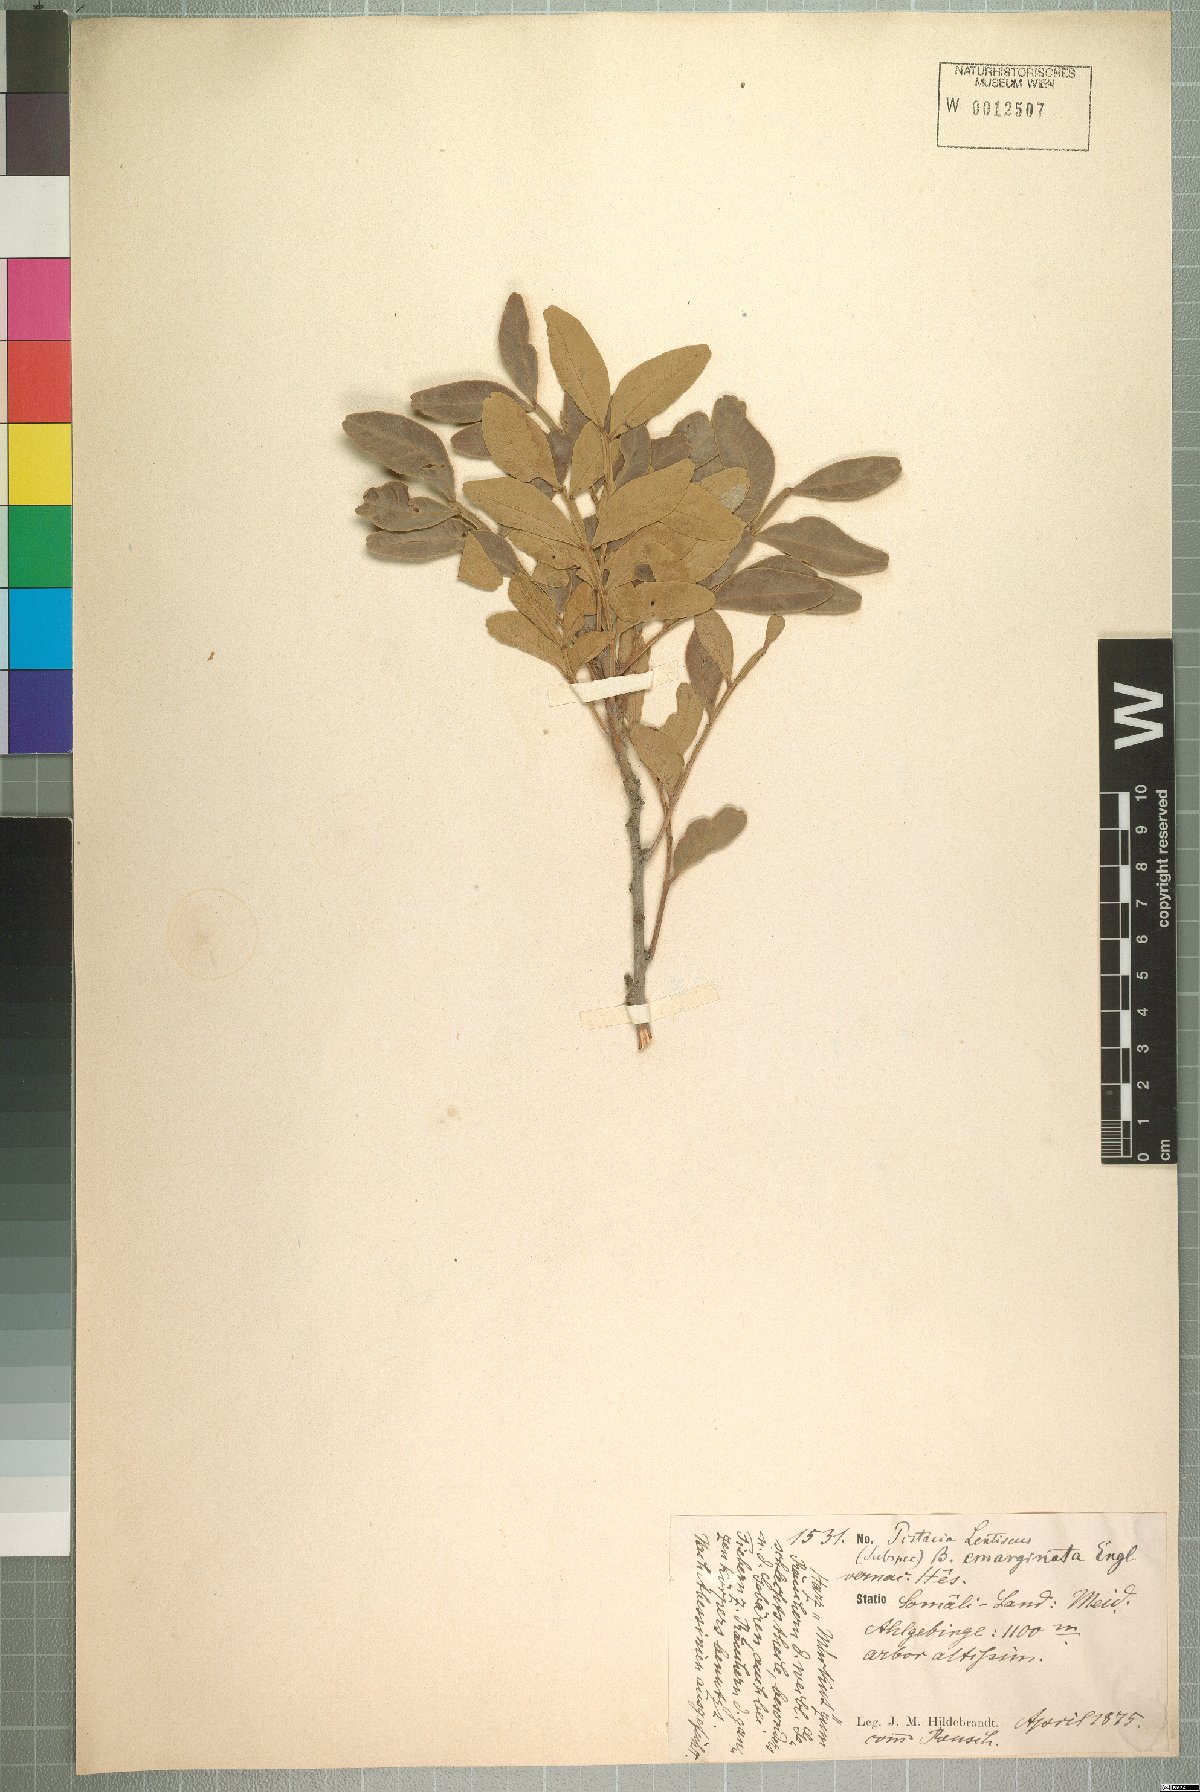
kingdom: Plantae
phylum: Tracheophyta
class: Magnoliopsida
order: Sapindales
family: Anacardiaceae
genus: Pistacia
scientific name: Pistacia lentiscus
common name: Lentisk
